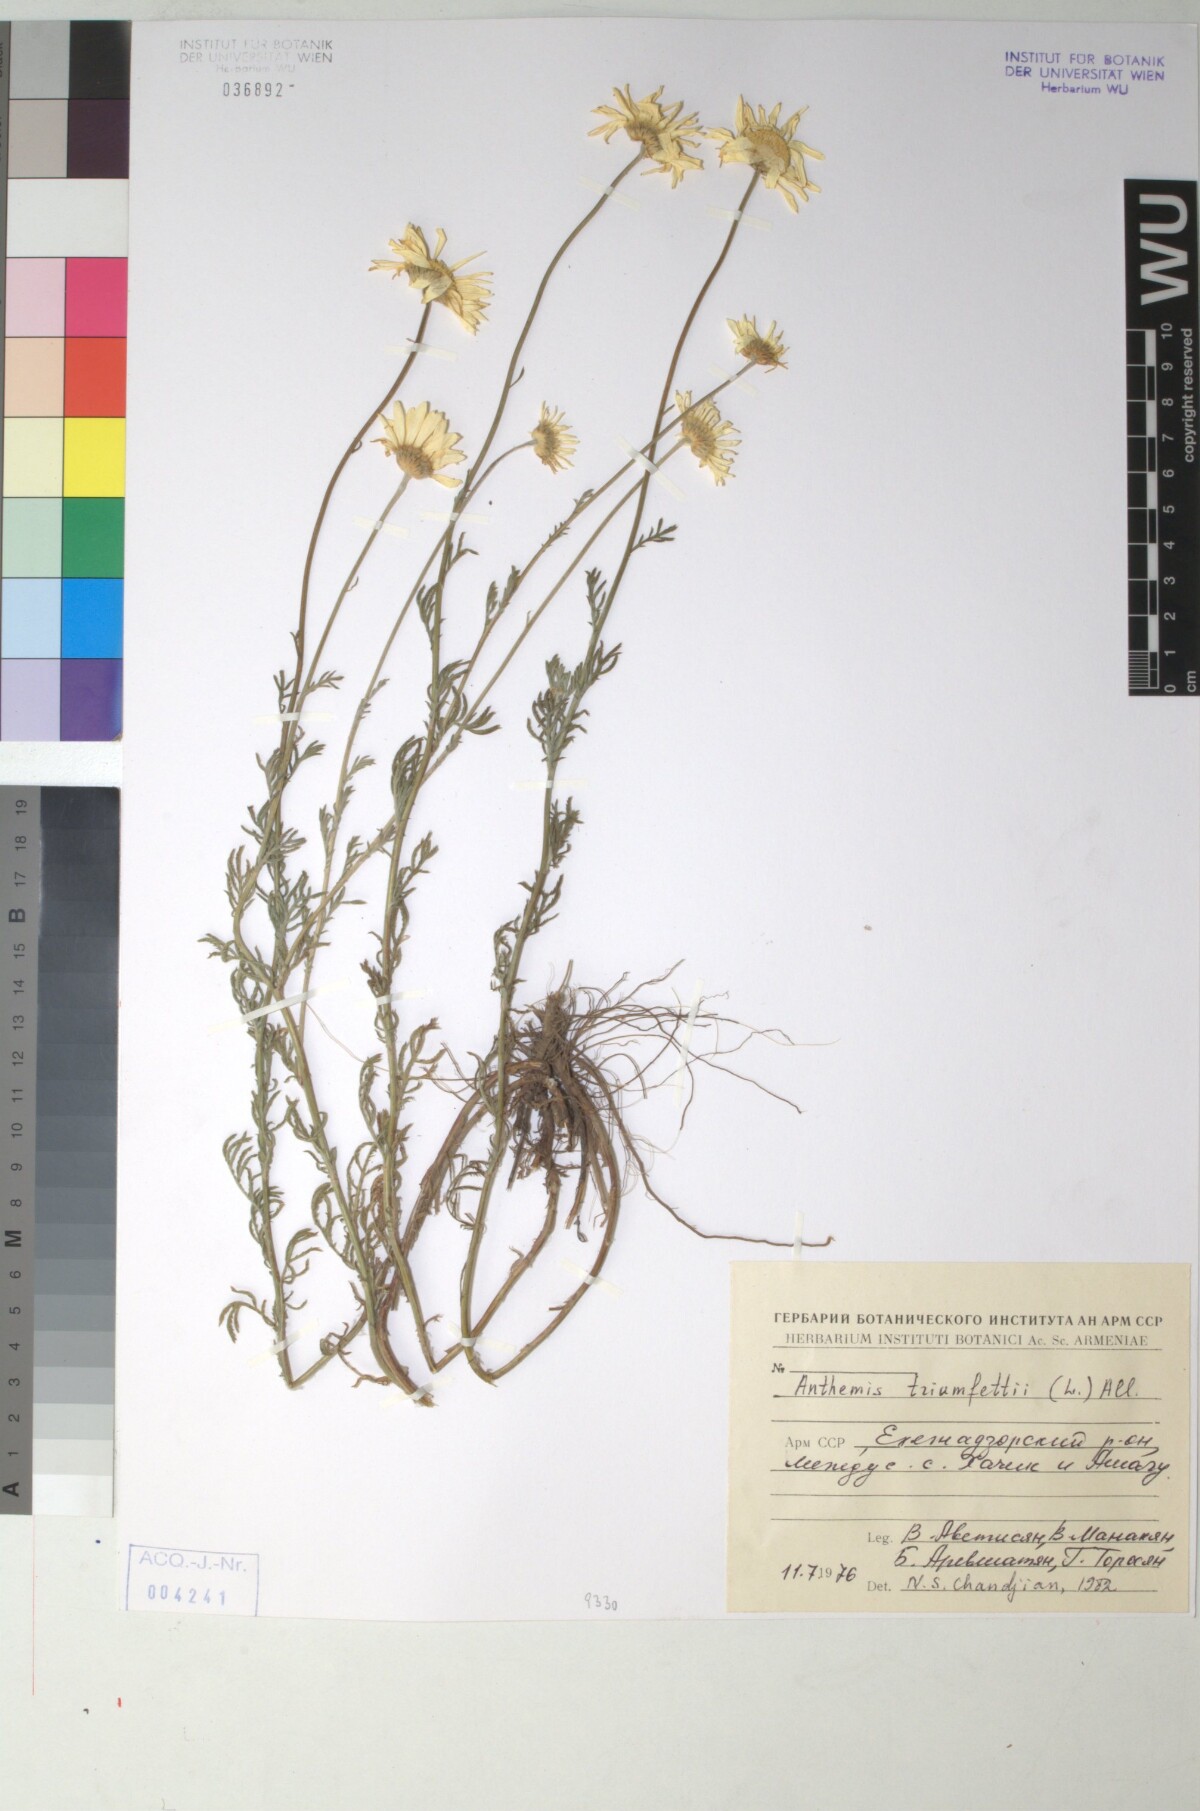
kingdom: Plantae
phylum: Tracheophyta
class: Magnoliopsida
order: Asterales
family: Asteraceae
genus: Cota
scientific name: Cota triumfetti
